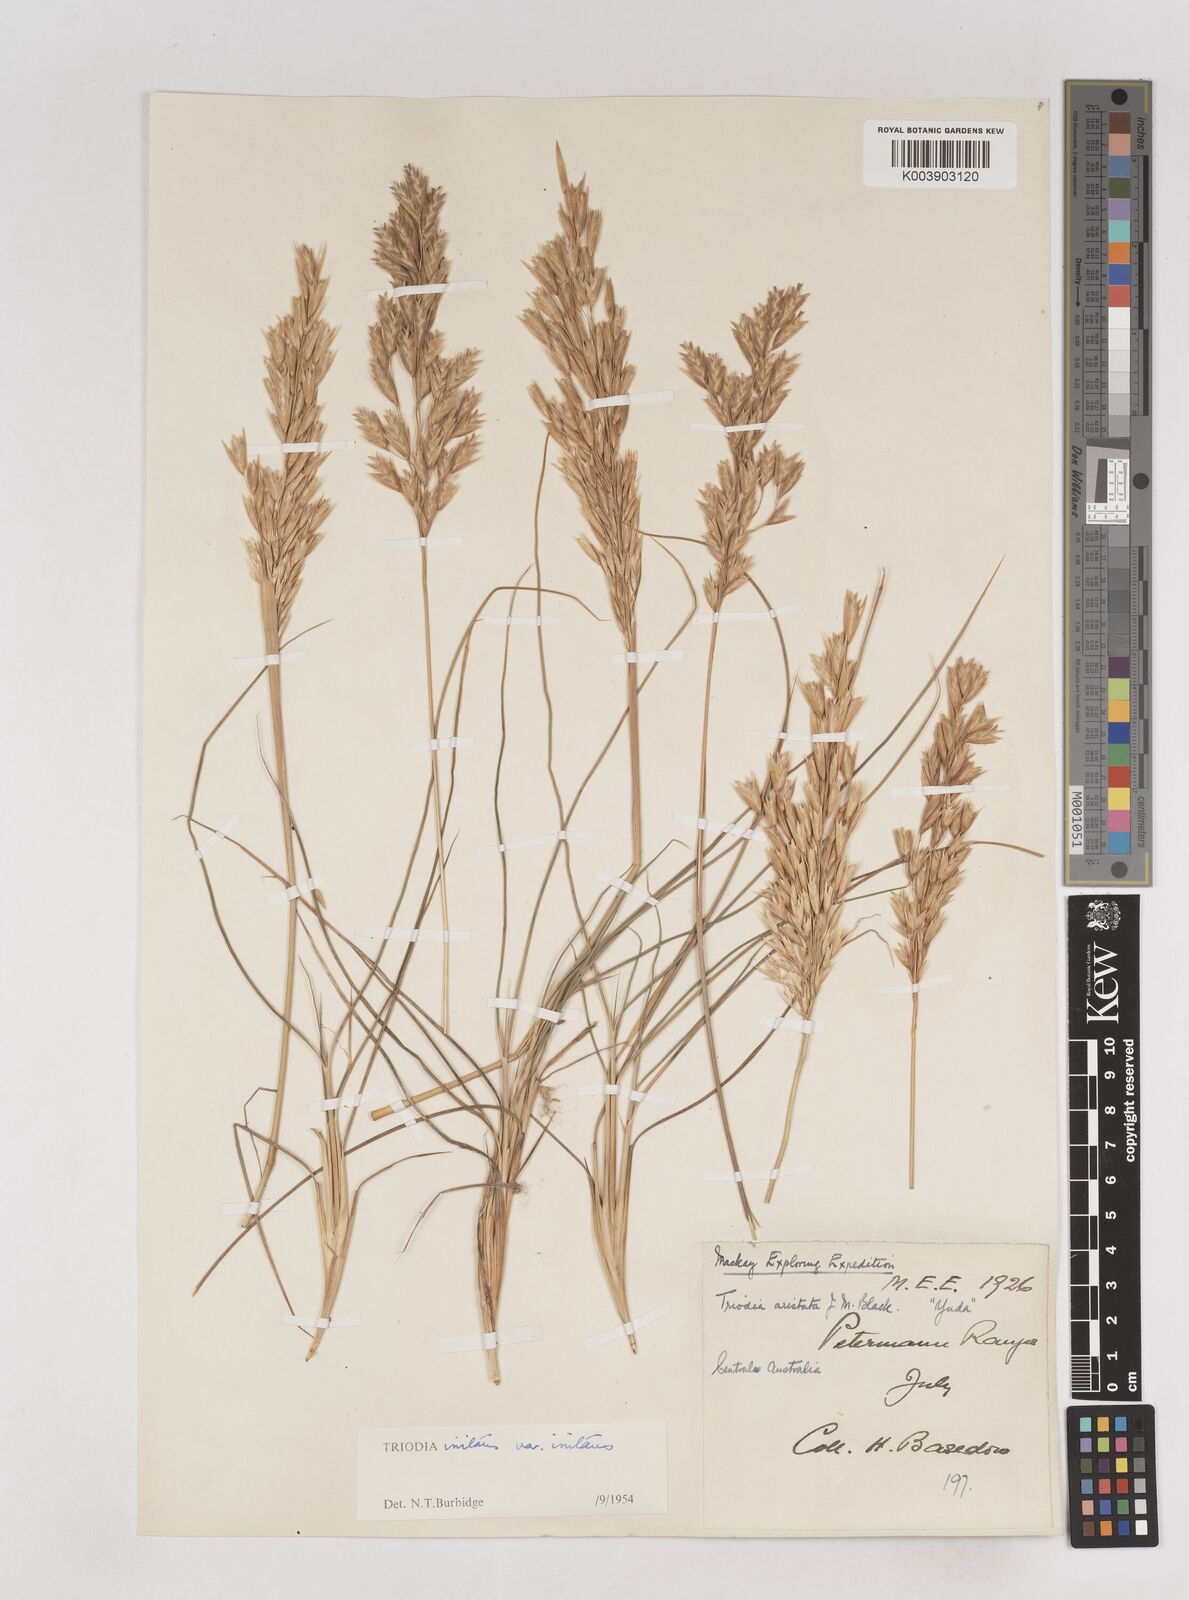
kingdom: Plantae
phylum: Tracheophyta
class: Liliopsida
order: Poales
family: Poaceae
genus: Triodia
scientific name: Triodia irritans
